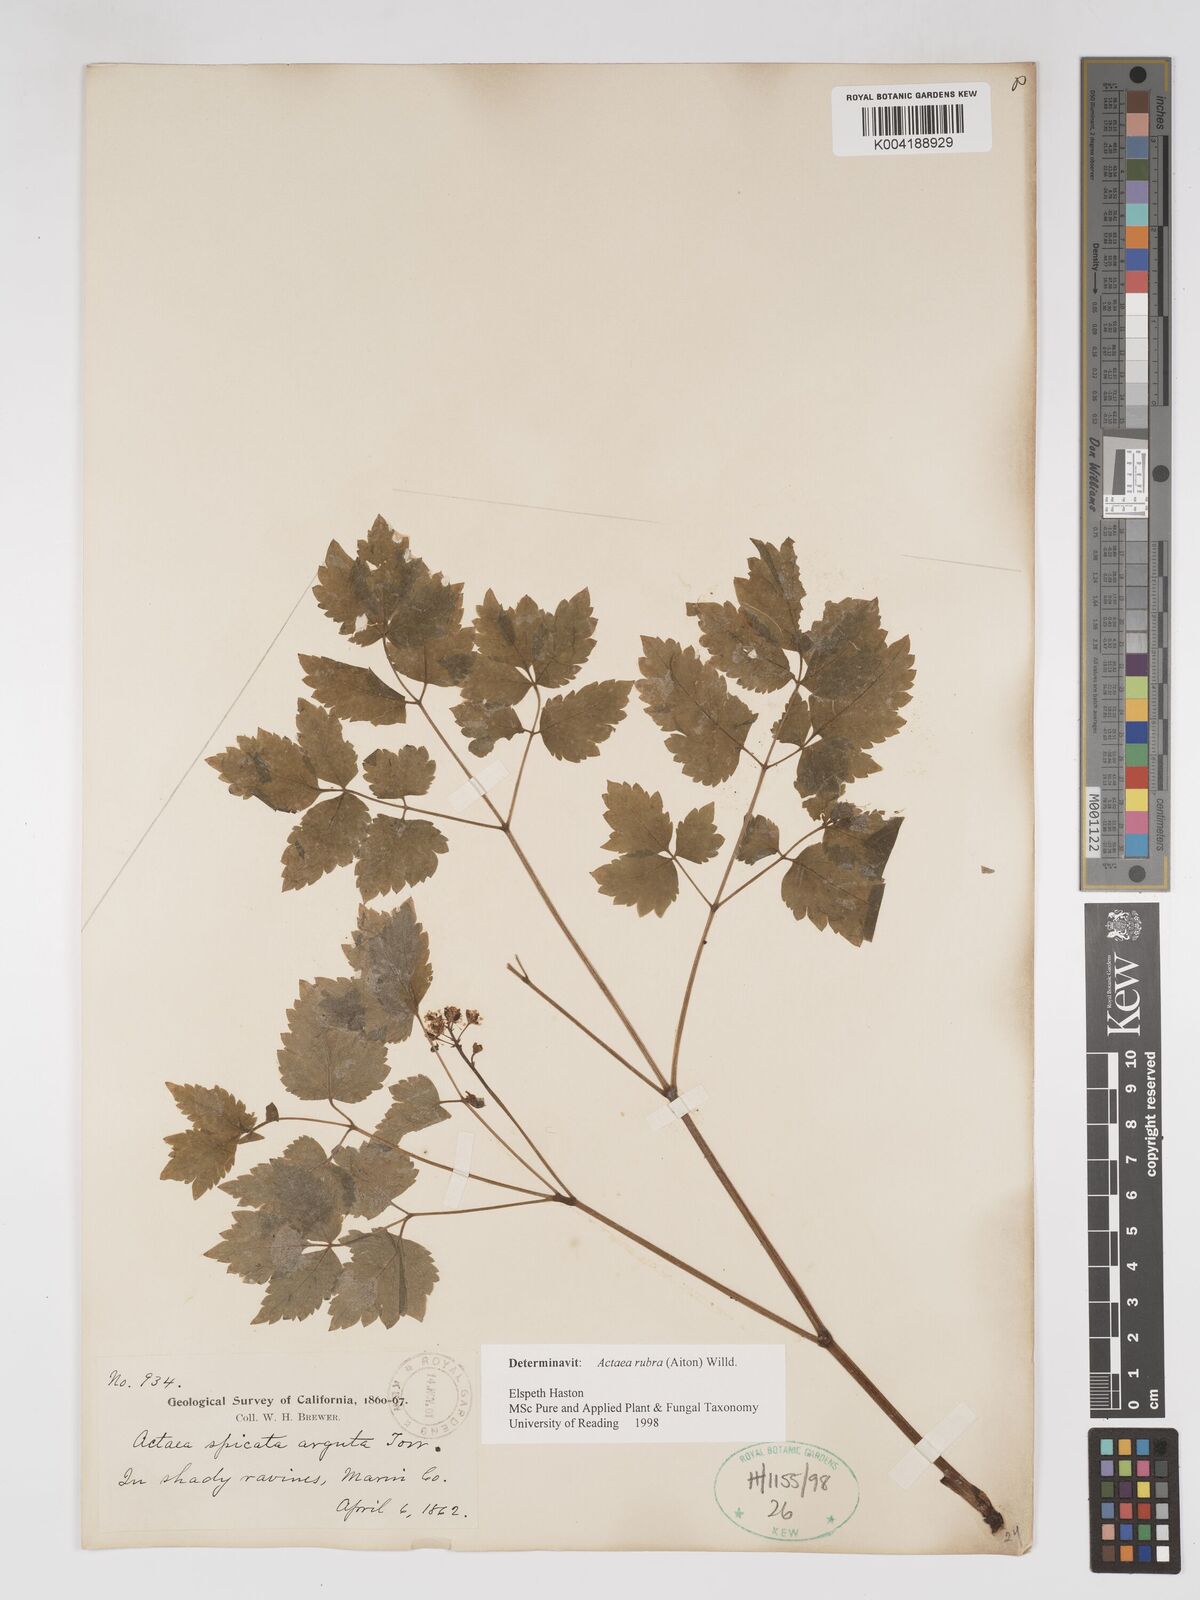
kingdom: Plantae
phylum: Tracheophyta
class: Magnoliopsida
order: Ranunculales
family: Ranunculaceae
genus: Actaea
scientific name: Actaea rubra
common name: Red baneberry
